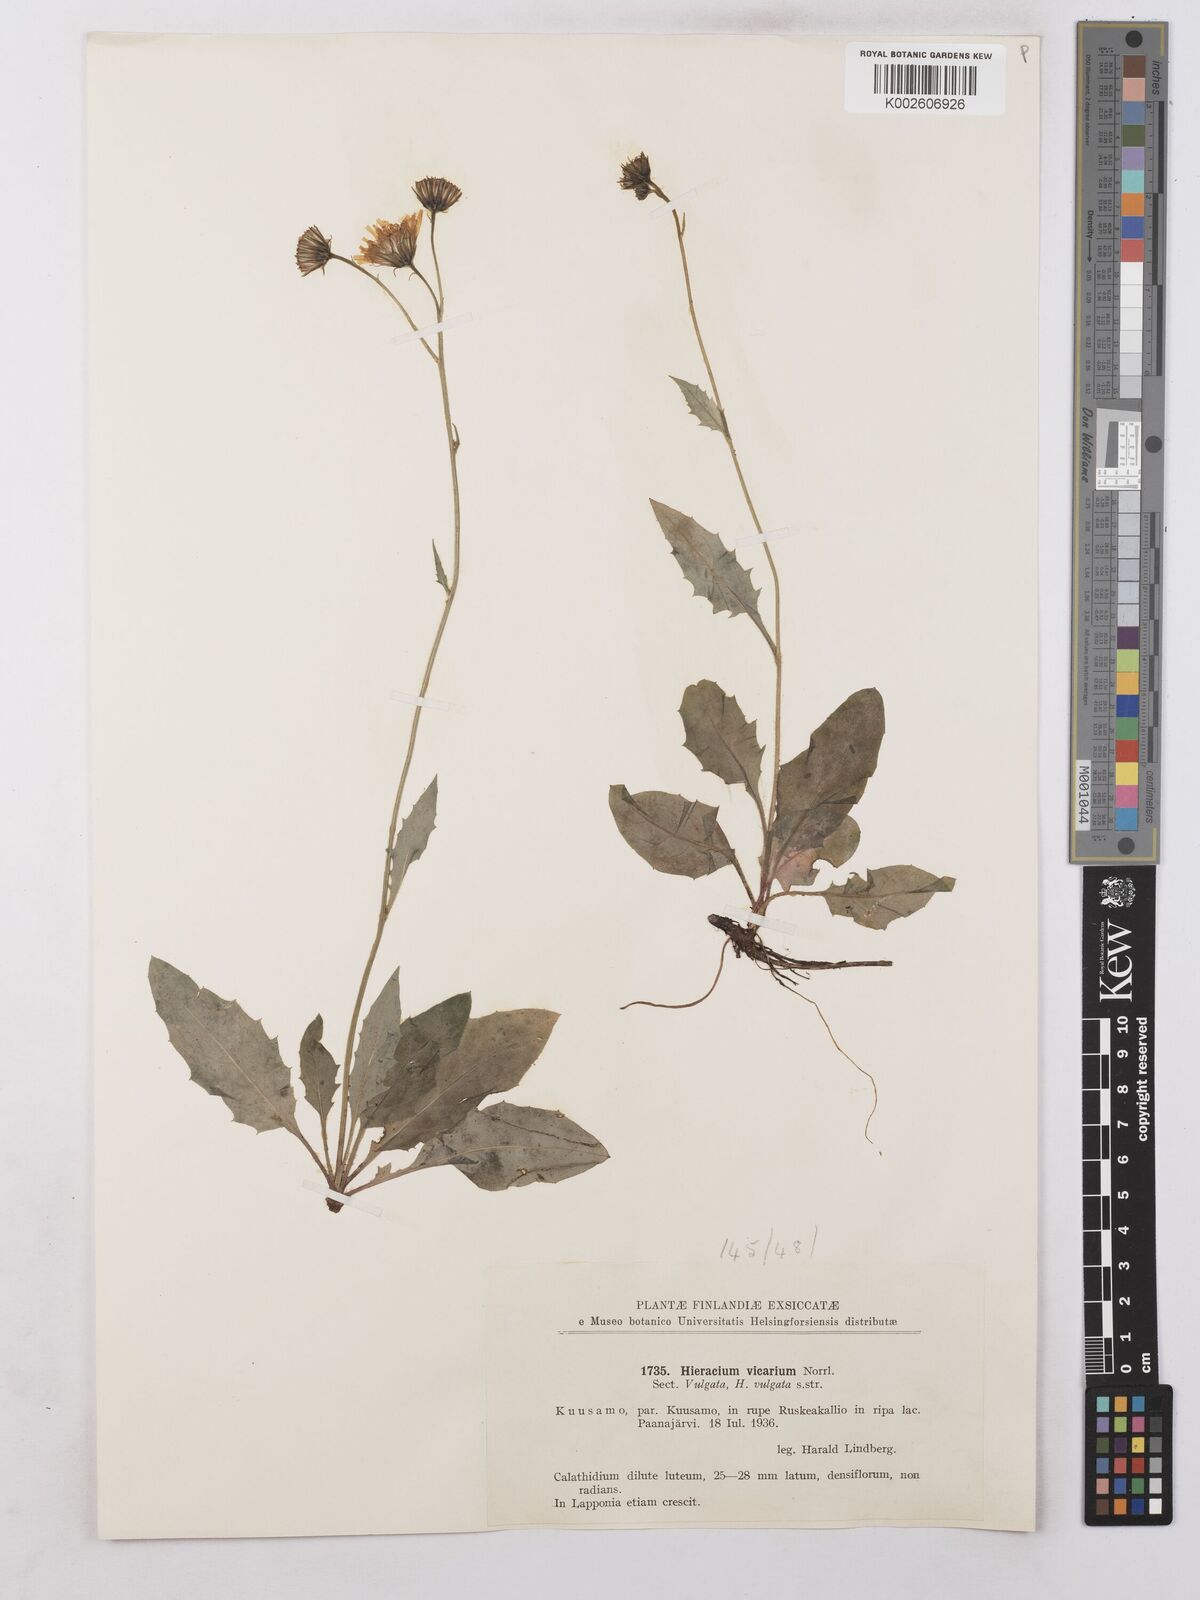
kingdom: Plantae
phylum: Tracheophyta
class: Magnoliopsida
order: Asterales
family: Asteraceae
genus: Hieracium
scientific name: Hieracium levicaule
